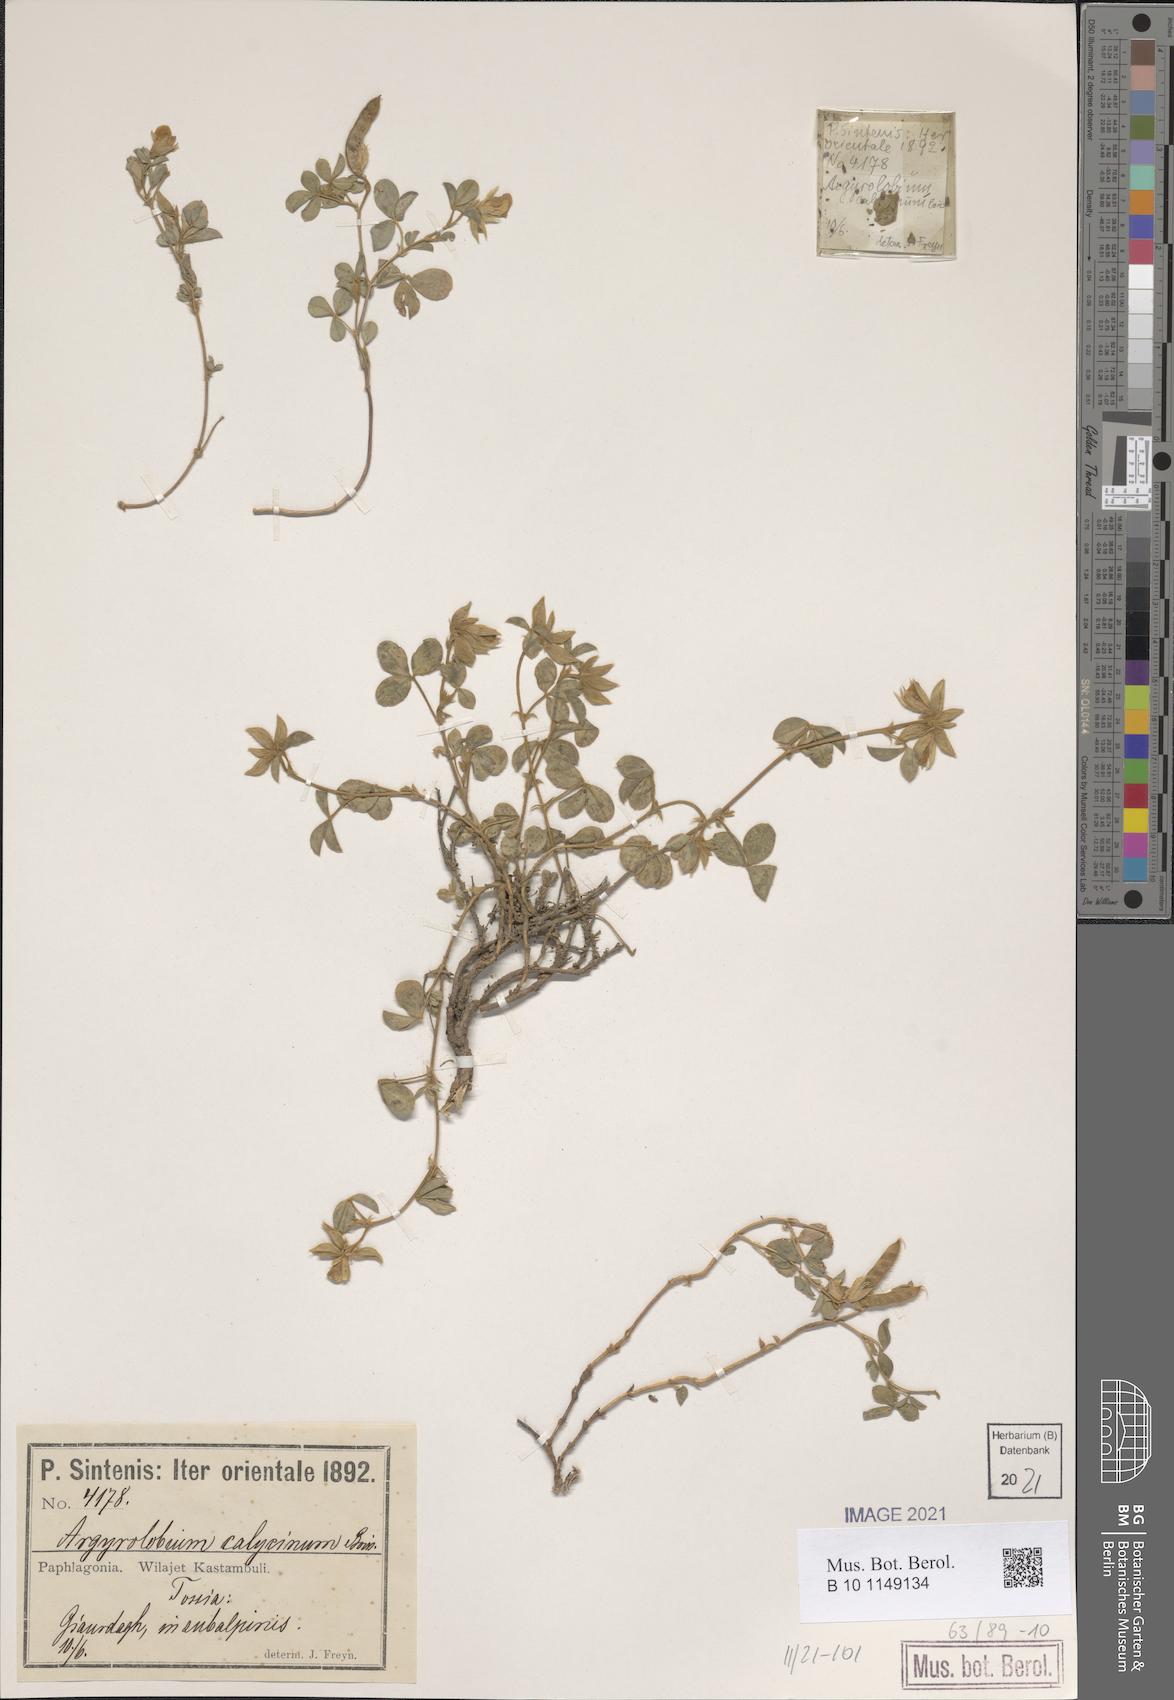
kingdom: Plantae
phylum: Tracheophyta
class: Magnoliopsida
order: Fabales
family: Fabaceae
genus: Argyrolobium
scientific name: Argyrolobium biebersteinii
